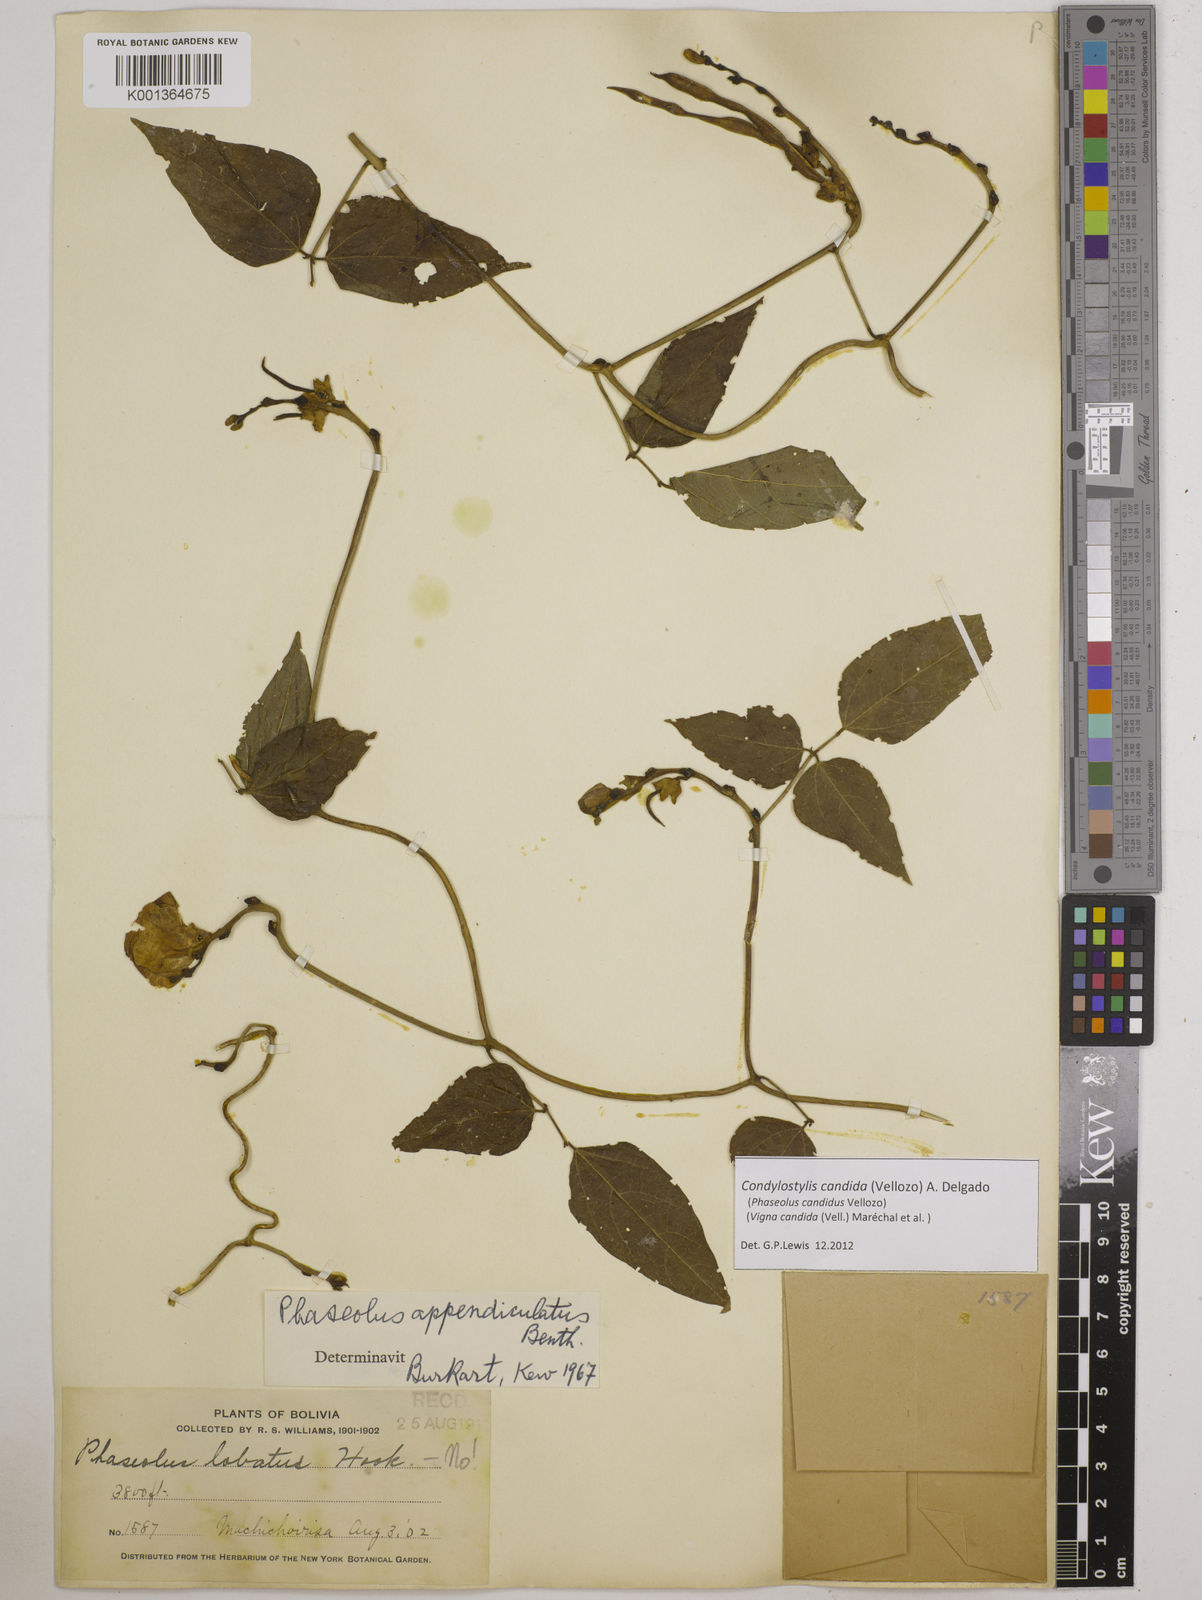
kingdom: Plantae
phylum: Tracheophyta
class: Magnoliopsida
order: Fabales
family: Fabaceae
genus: Condylostylis
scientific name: Condylostylis candida
